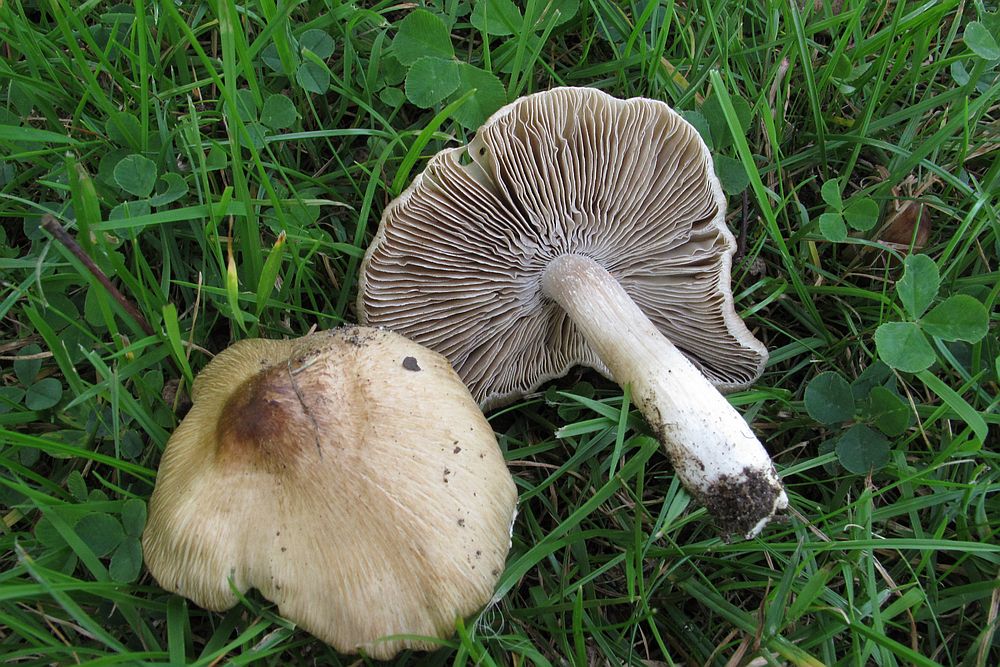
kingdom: Fungi
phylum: Basidiomycota
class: Agaricomycetes
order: Agaricales
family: Inocybaceae
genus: Pseudosperma
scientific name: Pseudosperma
